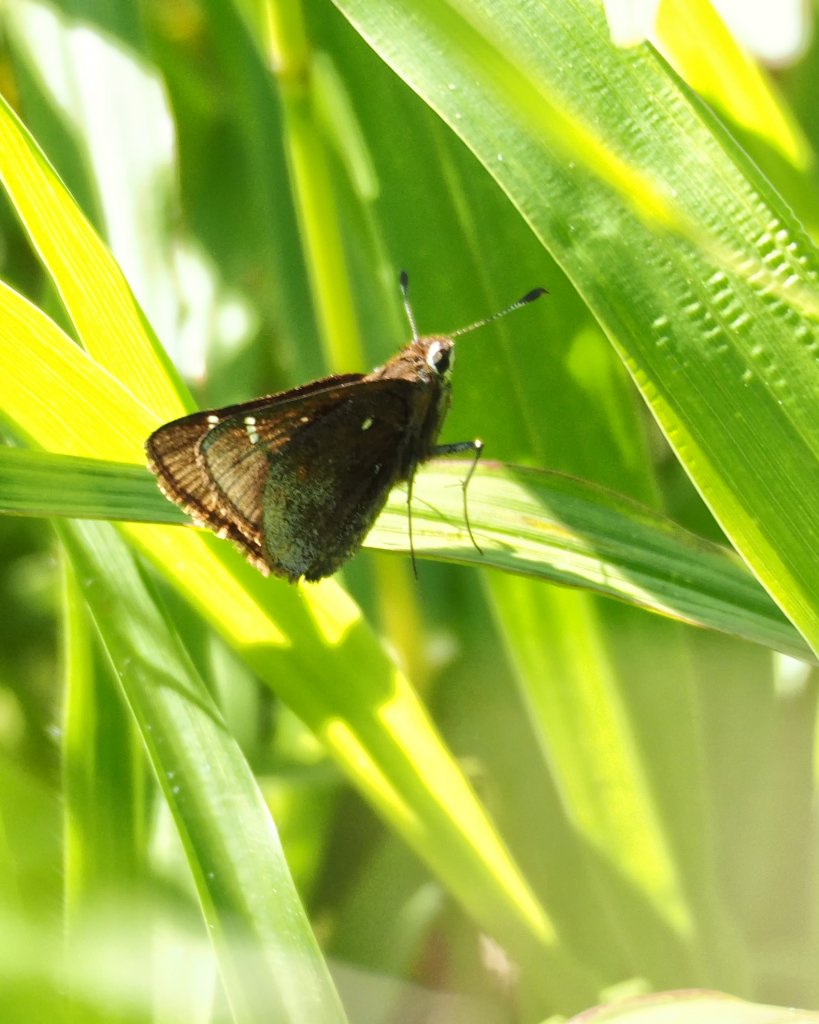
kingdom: Animalia
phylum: Arthropoda
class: Insecta
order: Lepidoptera
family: Hesperiidae
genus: Atrytonopsis
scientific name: Atrytonopsis hianna
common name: Dusted Skipper
